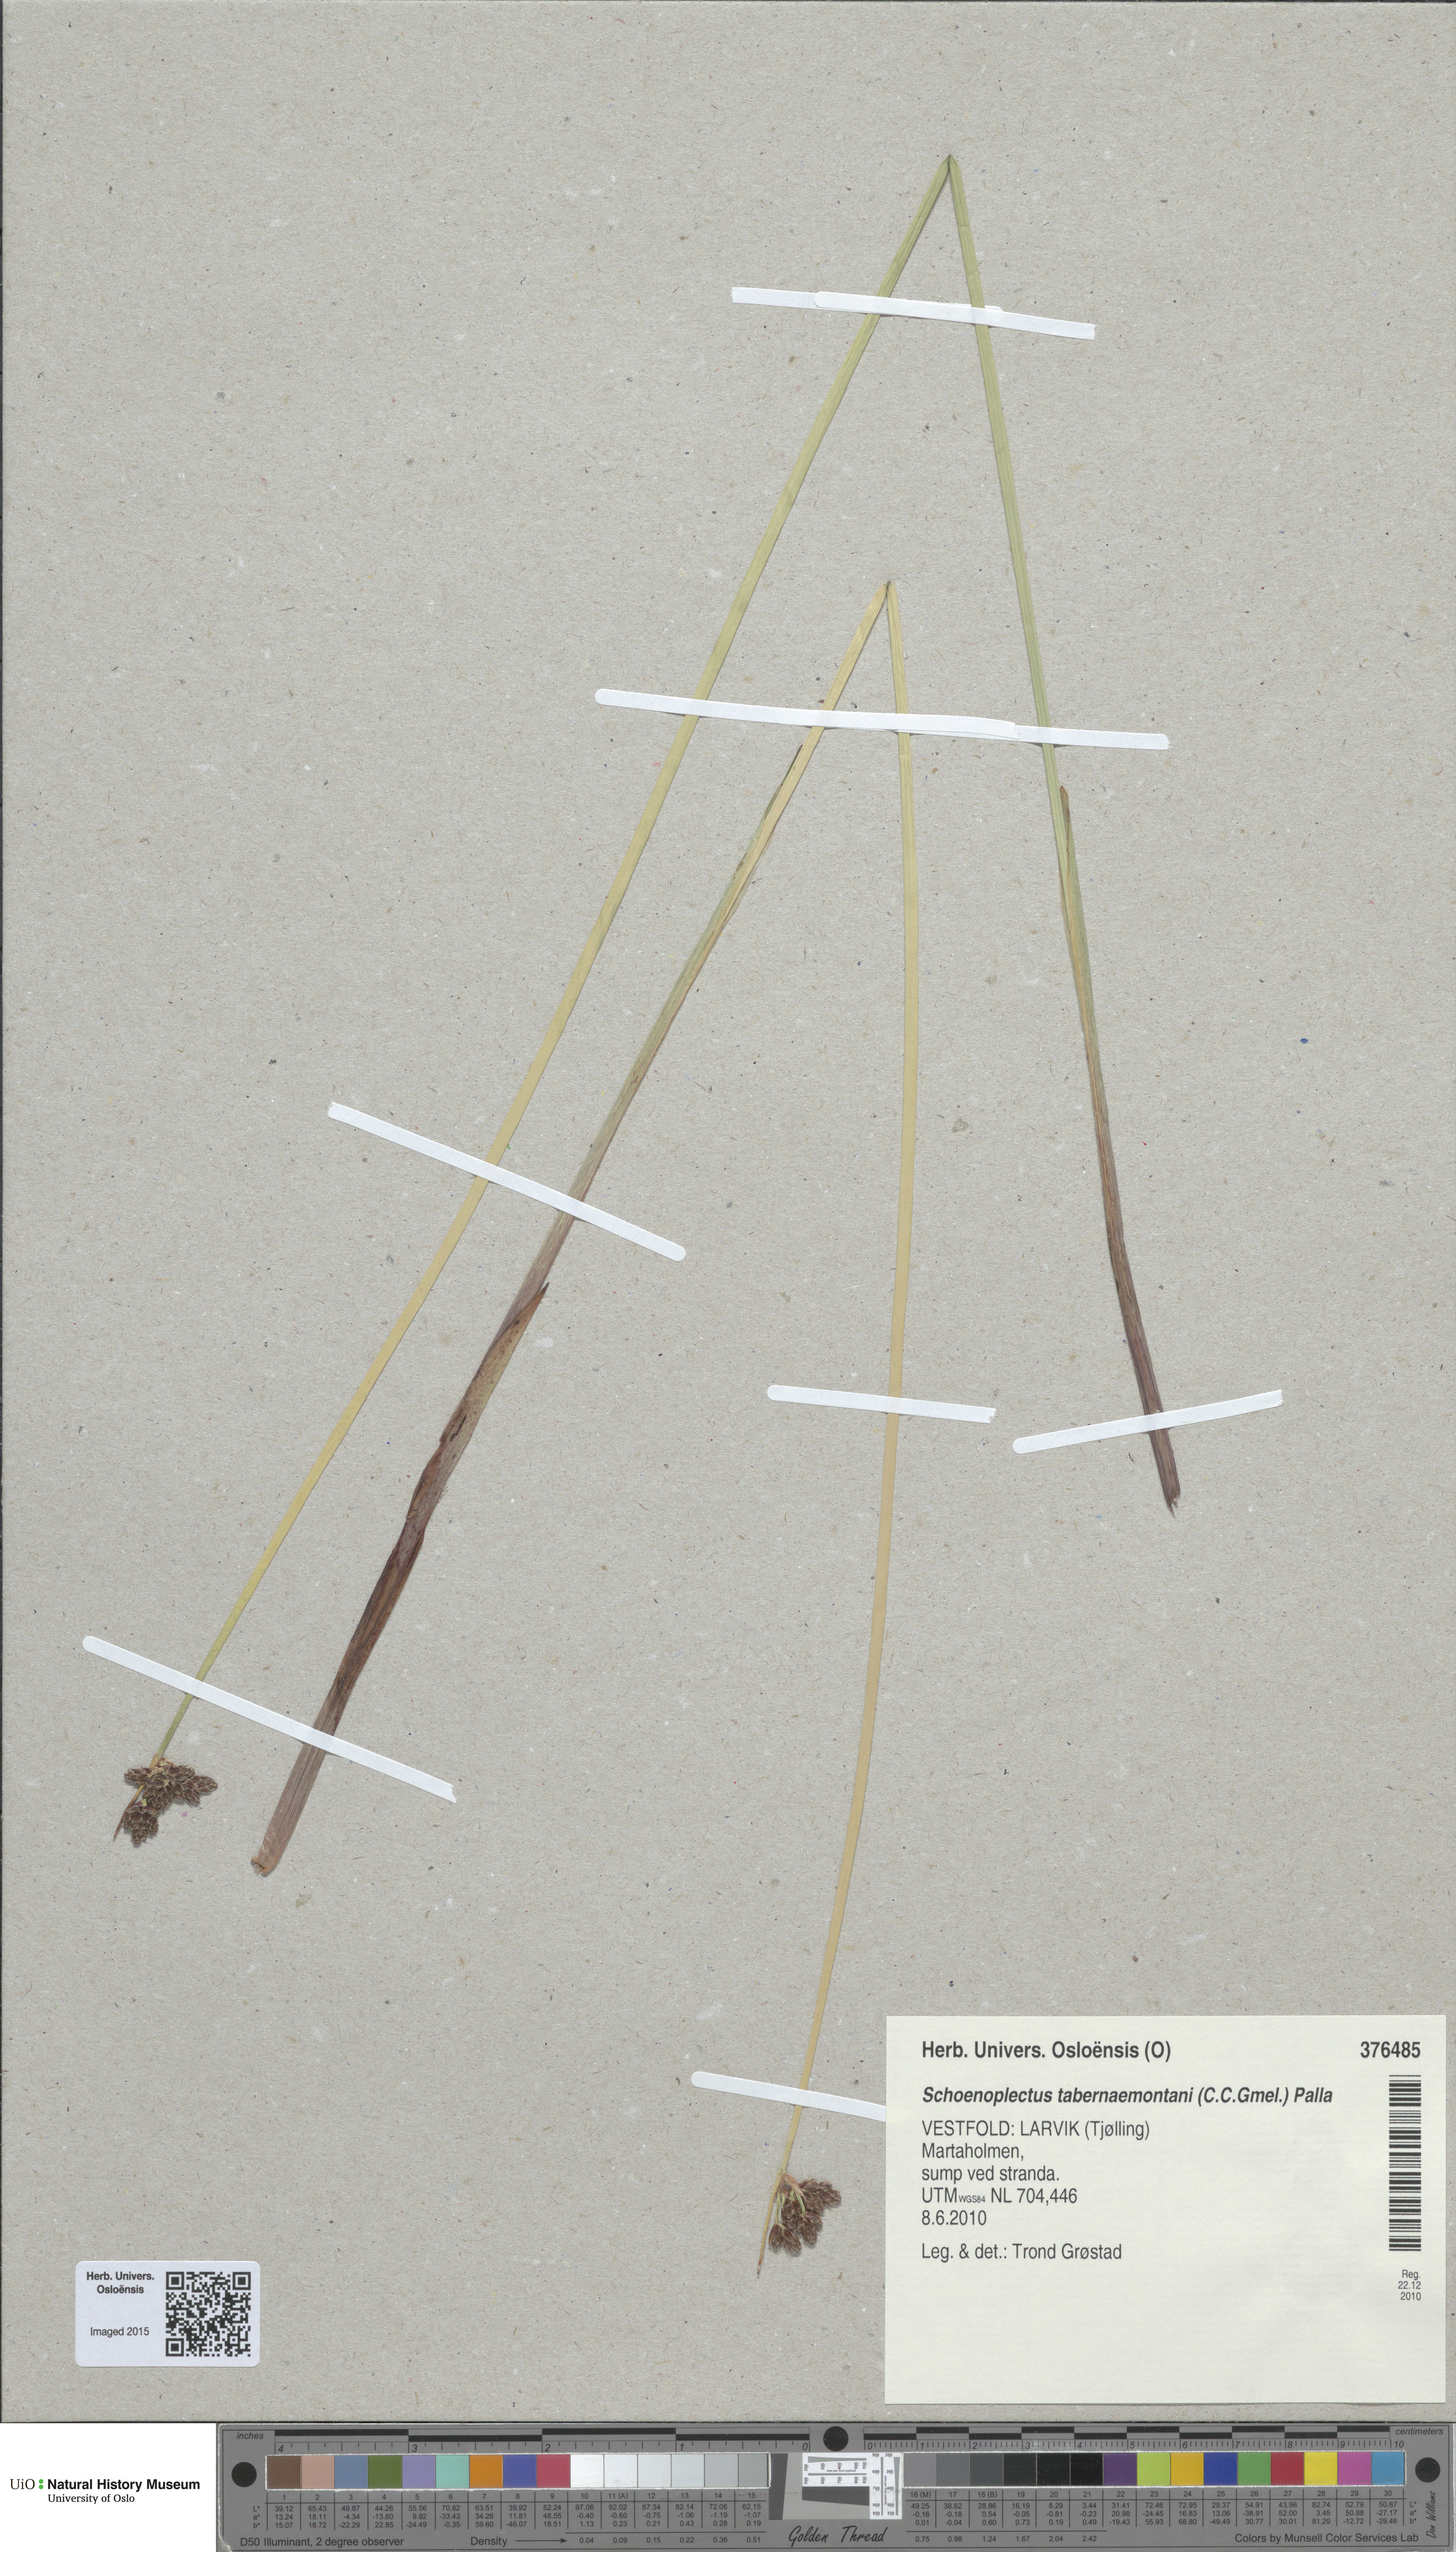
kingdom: Plantae
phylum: Tracheophyta
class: Liliopsida
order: Poales
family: Cyperaceae
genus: Schoenoplectus
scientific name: Schoenoplectus tabernaemontani
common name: Grey club-rush
